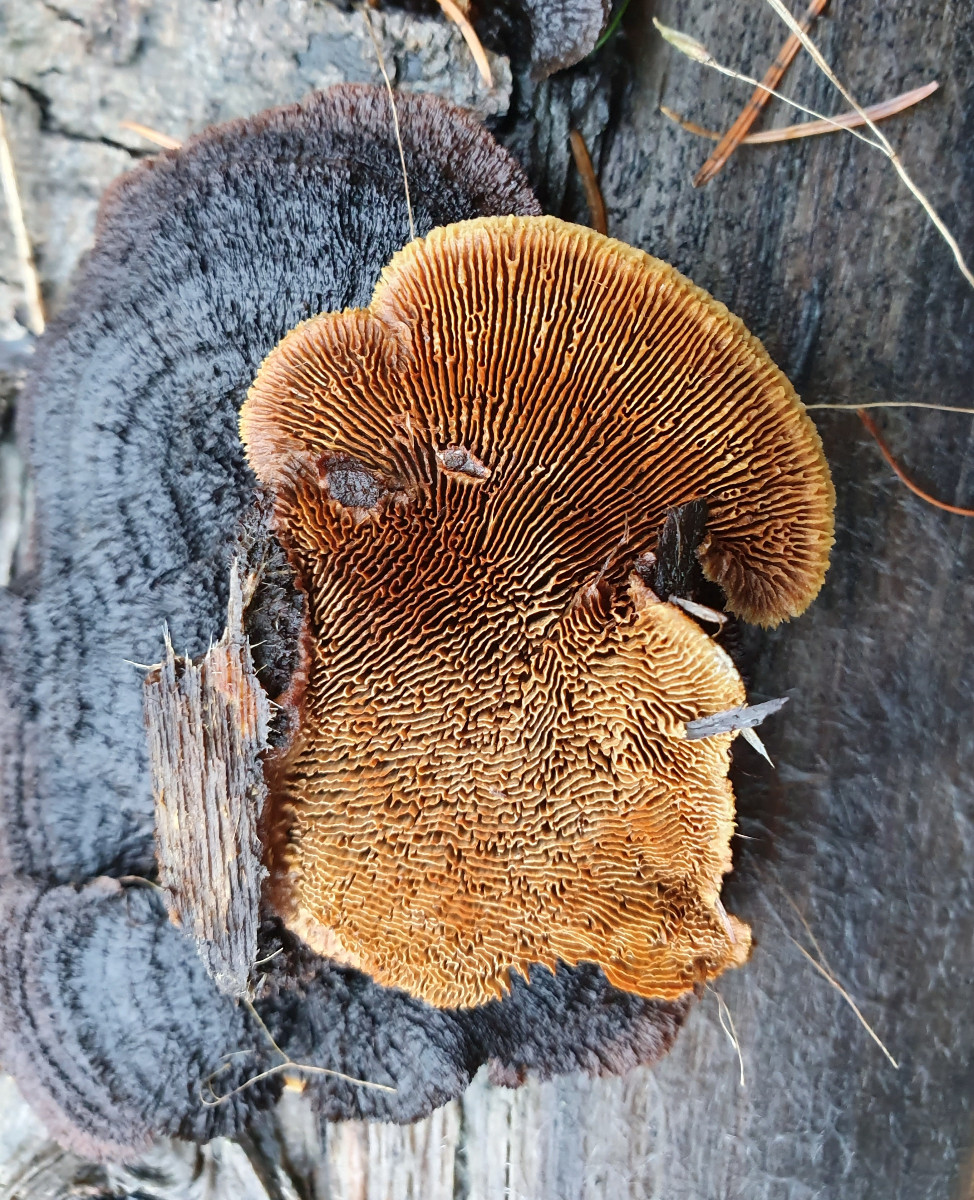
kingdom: Fungi
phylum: Basidiomycota
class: Agaricomycetes
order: Gloeophyllales
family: Gloeophyllaceae
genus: Gloeophyllum
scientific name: Gloeophyllum sepiarium
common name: fyrre-korkhat
